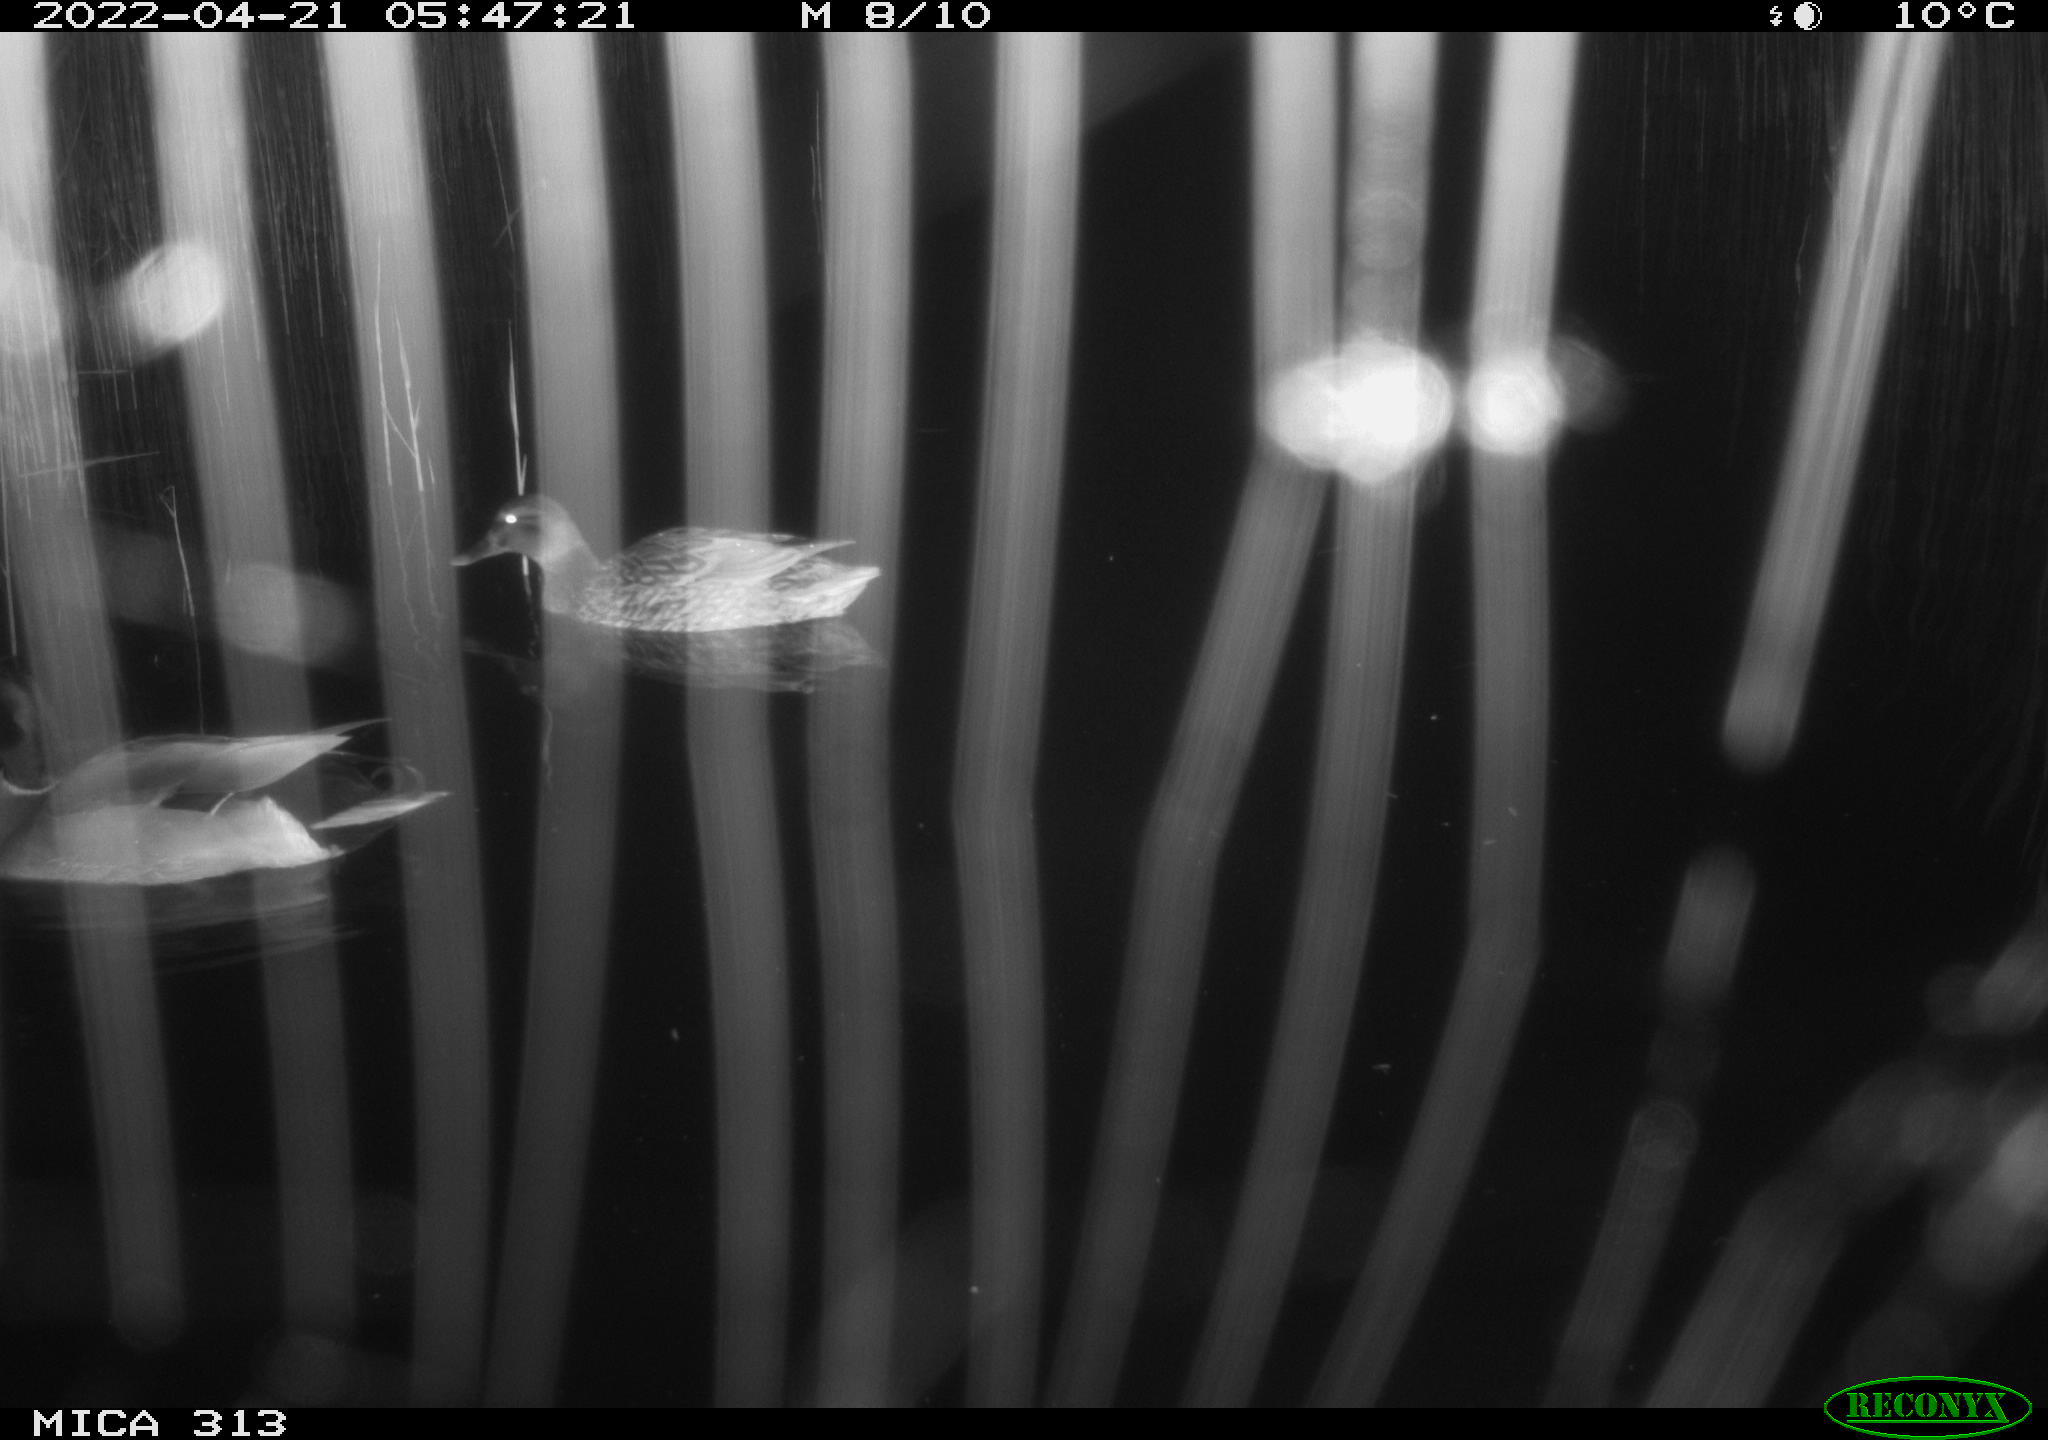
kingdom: Animalia
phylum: Chordata
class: Aves
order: Anseriformes
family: Anatidae
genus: Mareca
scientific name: Mareca strepera
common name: Gadwall
